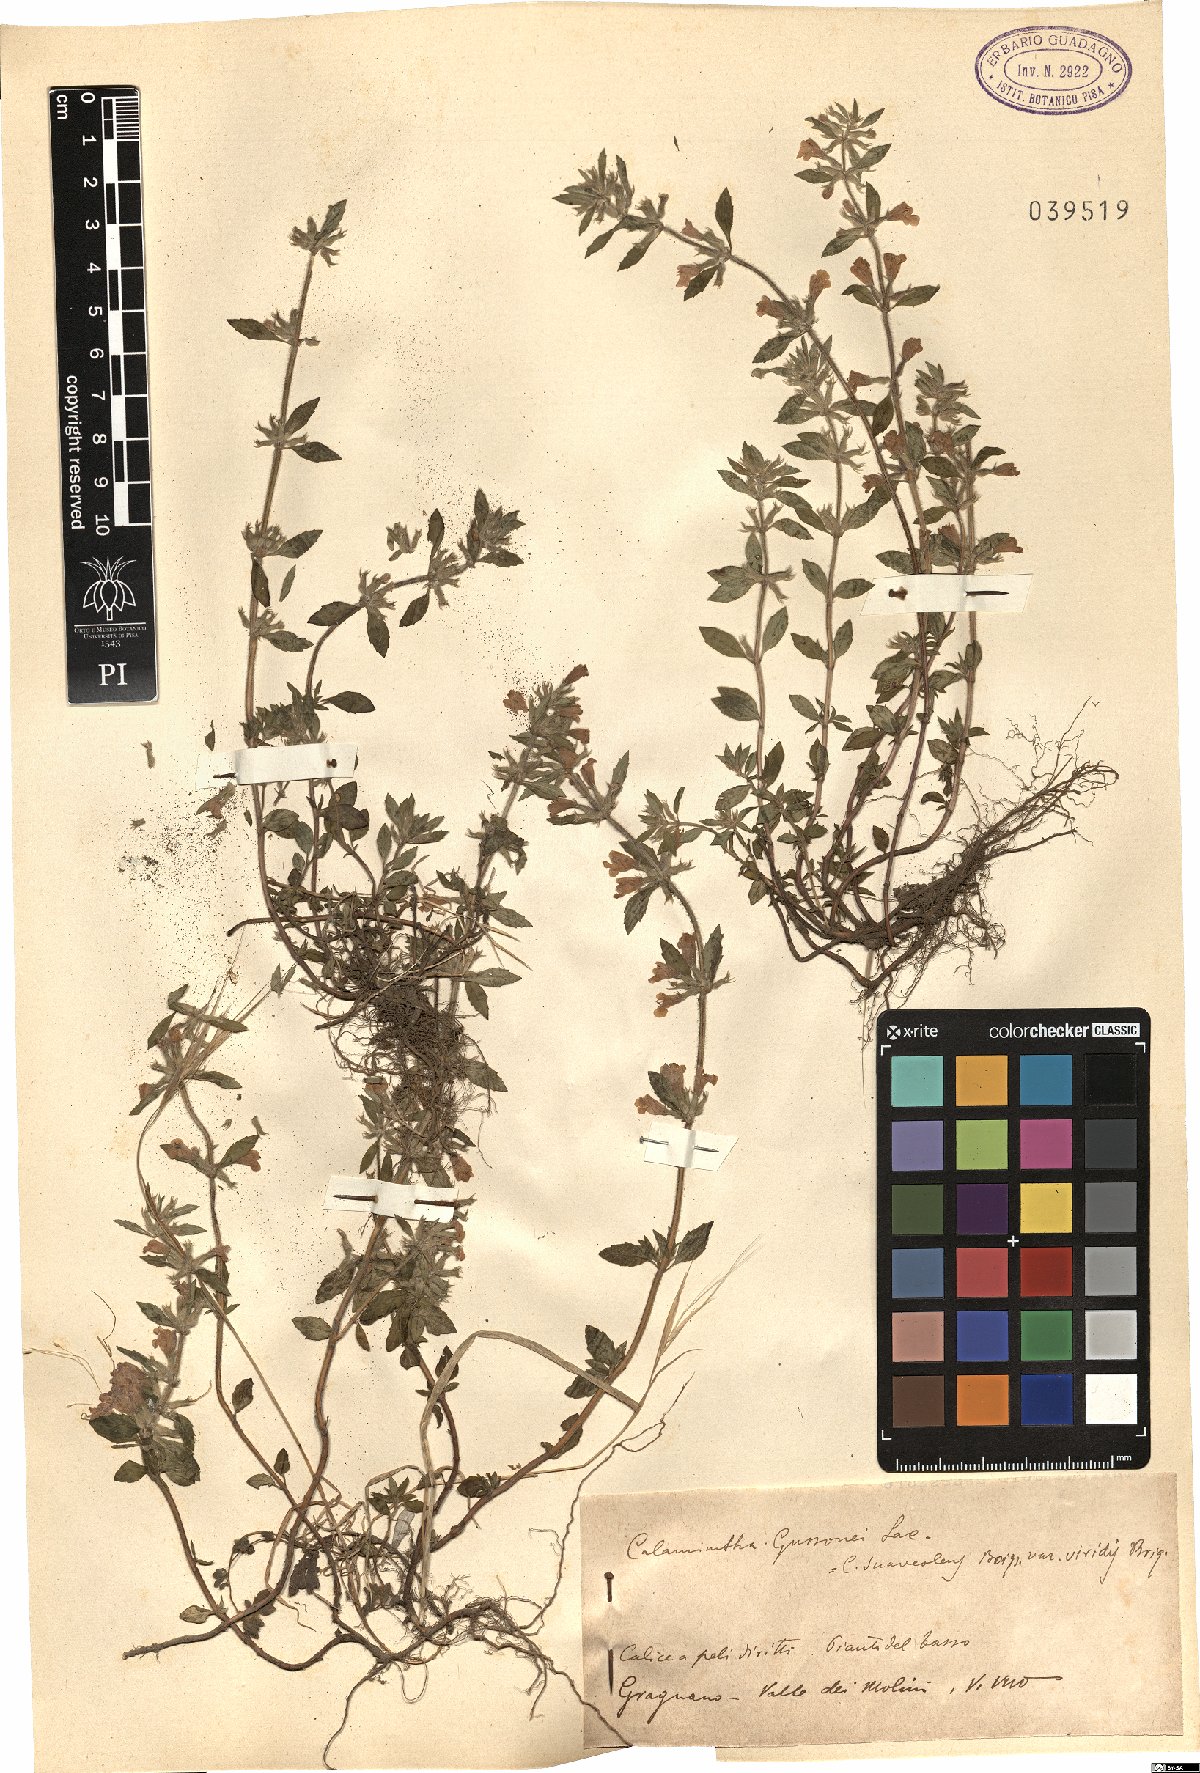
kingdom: Plantae
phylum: Tracheophyta
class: Magnoliopsida
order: Lamiales
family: Lamiaceae
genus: Clinopodium
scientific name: Clinopodium suaveolens
